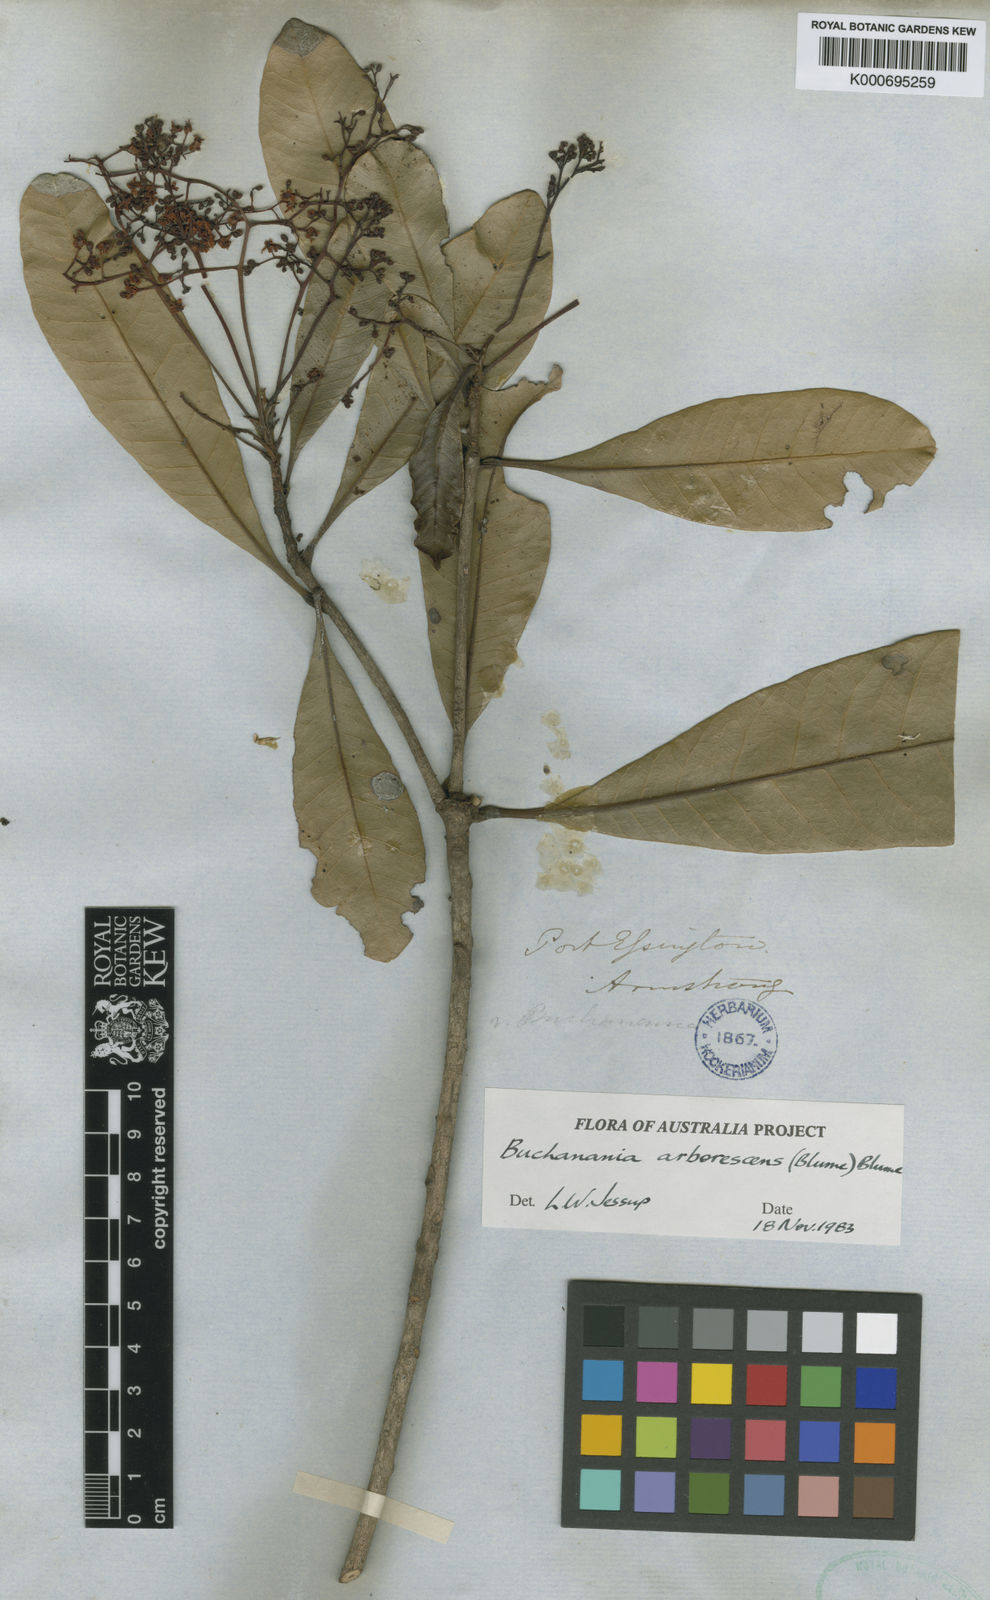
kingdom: Plantae
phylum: Tracheophyta
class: Magnoliopsida
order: Sapindales
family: Anacardiaceae
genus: Buchanania
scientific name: Buchanania arborescens
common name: Sparrow’s mango
